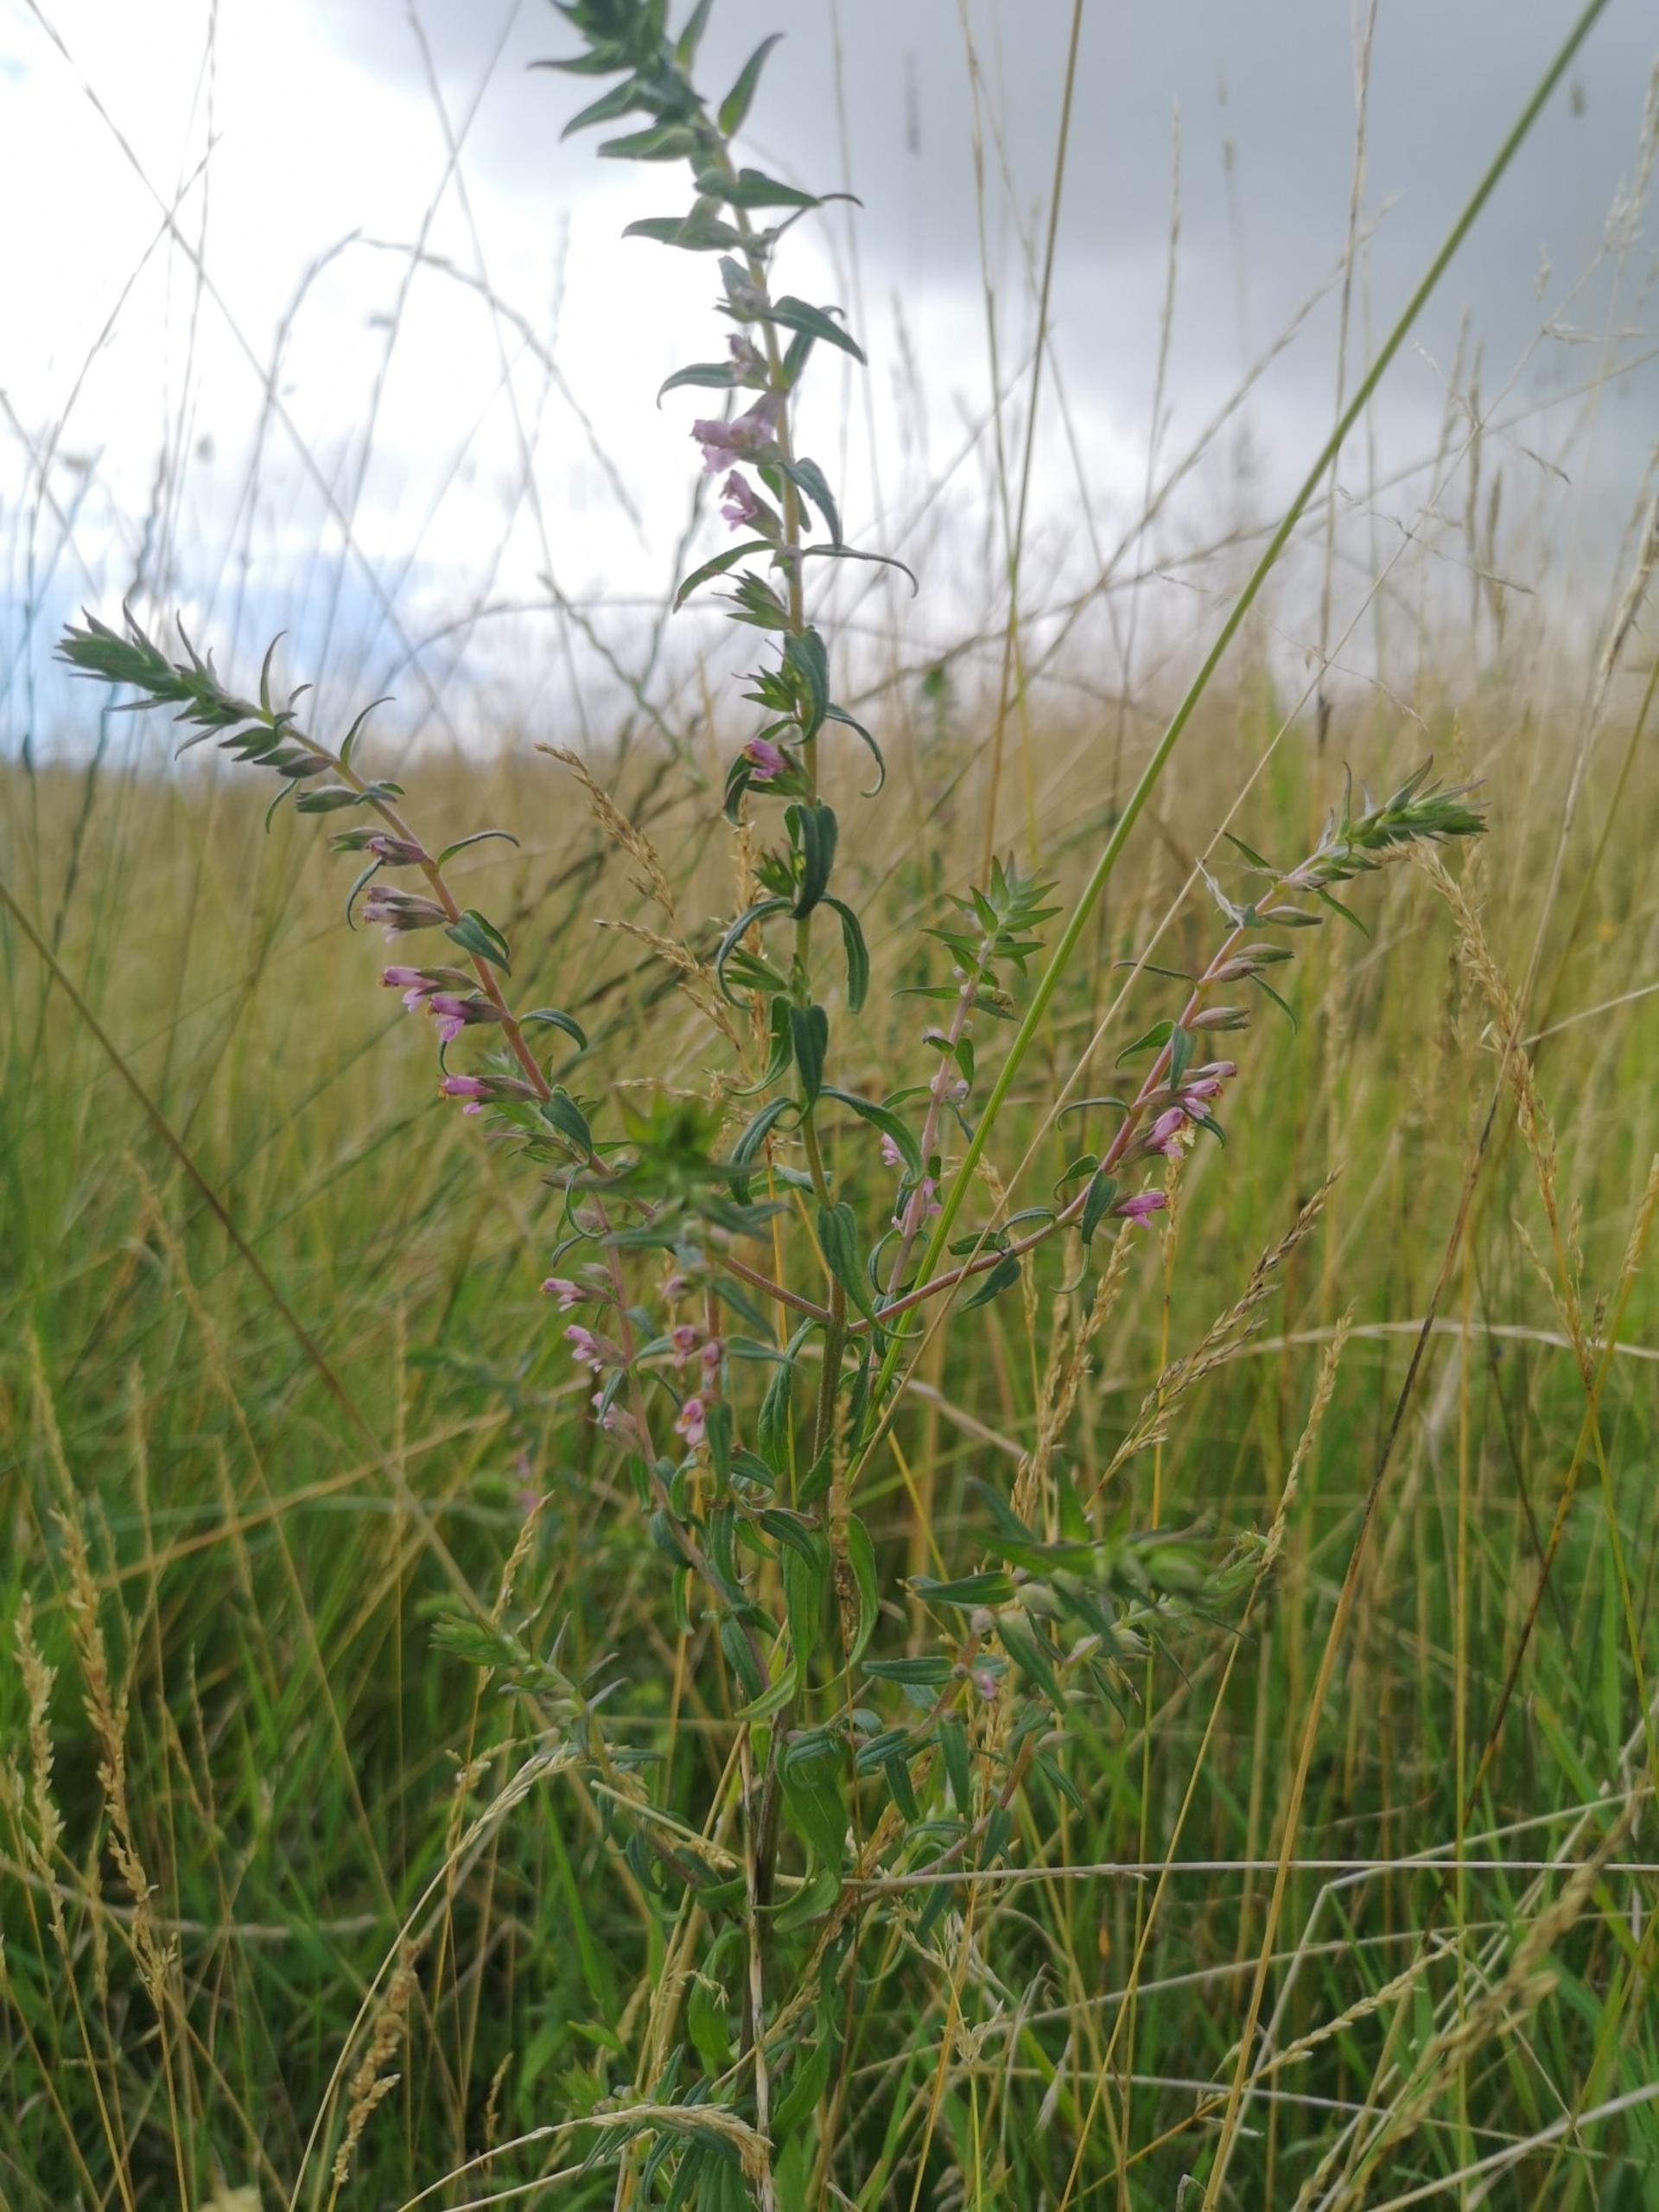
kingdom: Plantae
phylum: Tracheophyta
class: Magnoliopsida
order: Lamiales
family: Orobanchaceae
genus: Odontites
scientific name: Odontites vulgaris
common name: Høst-rødtop
